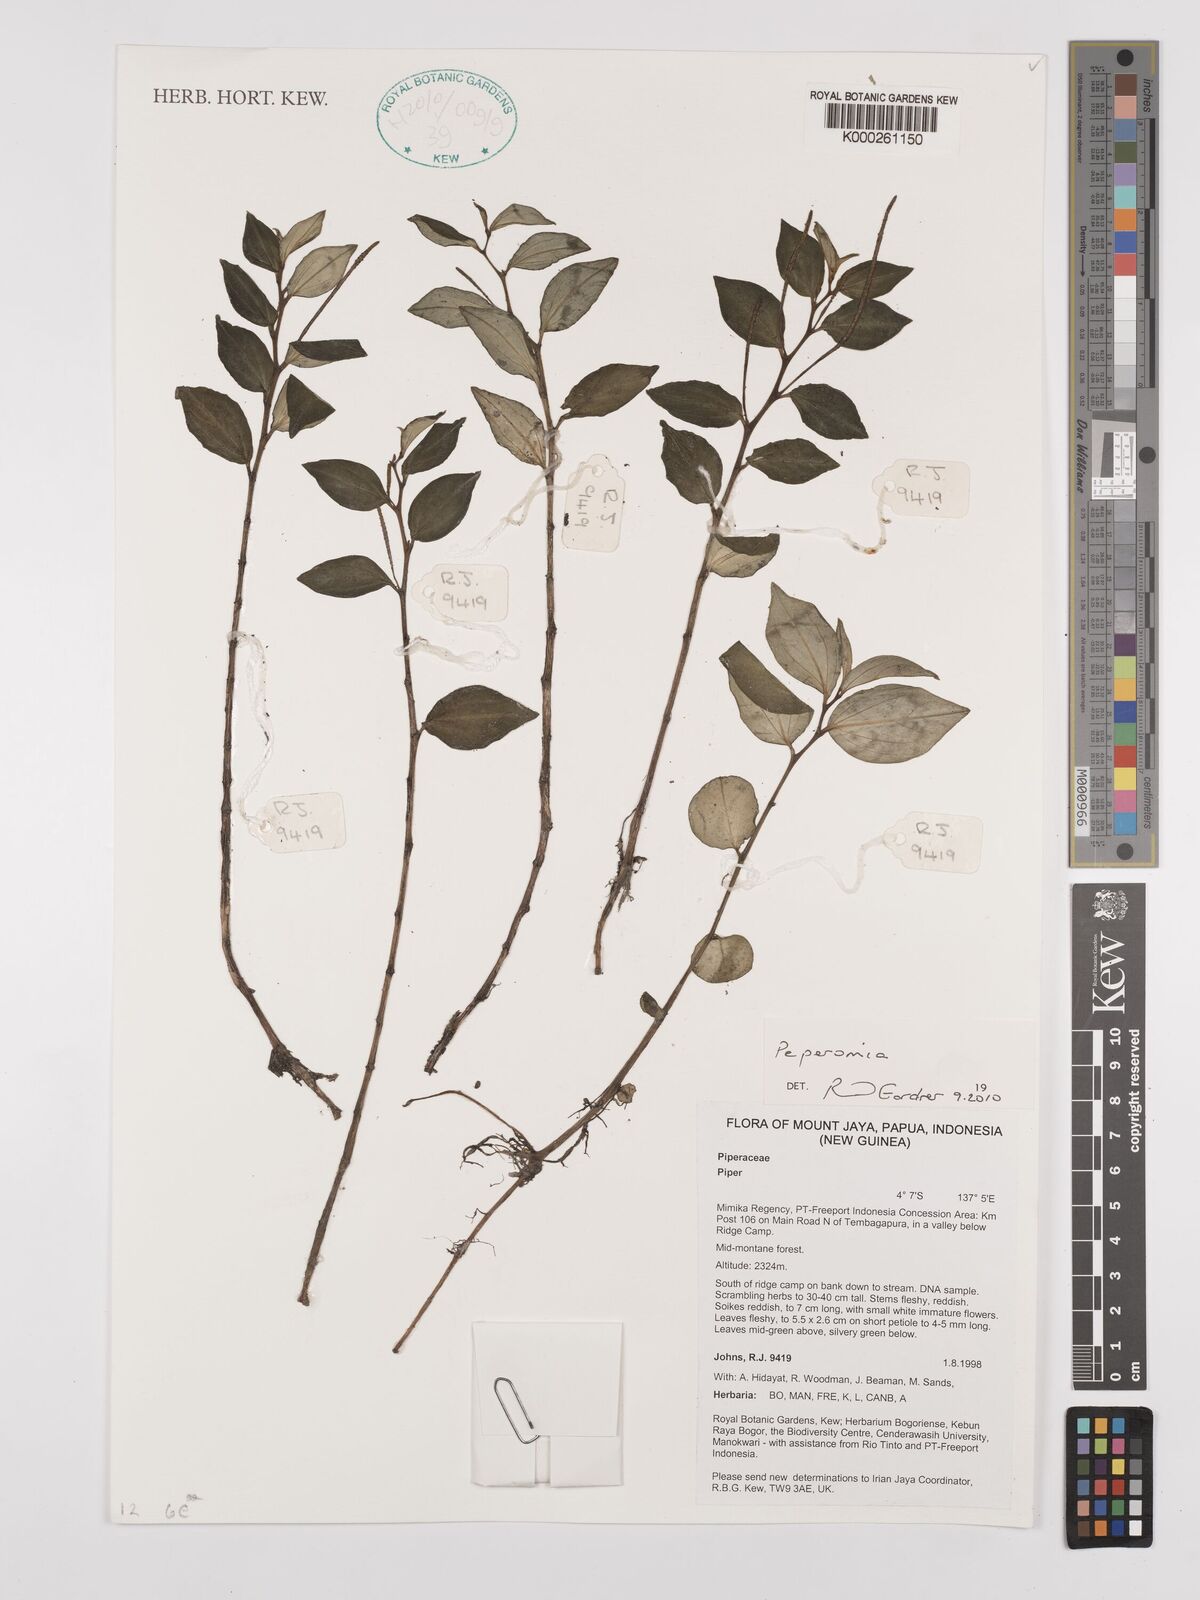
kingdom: Plantae
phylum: Tracheophyta
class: Magnoliopsida
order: Piperales
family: Piperaceae
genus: Piper
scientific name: Piper
